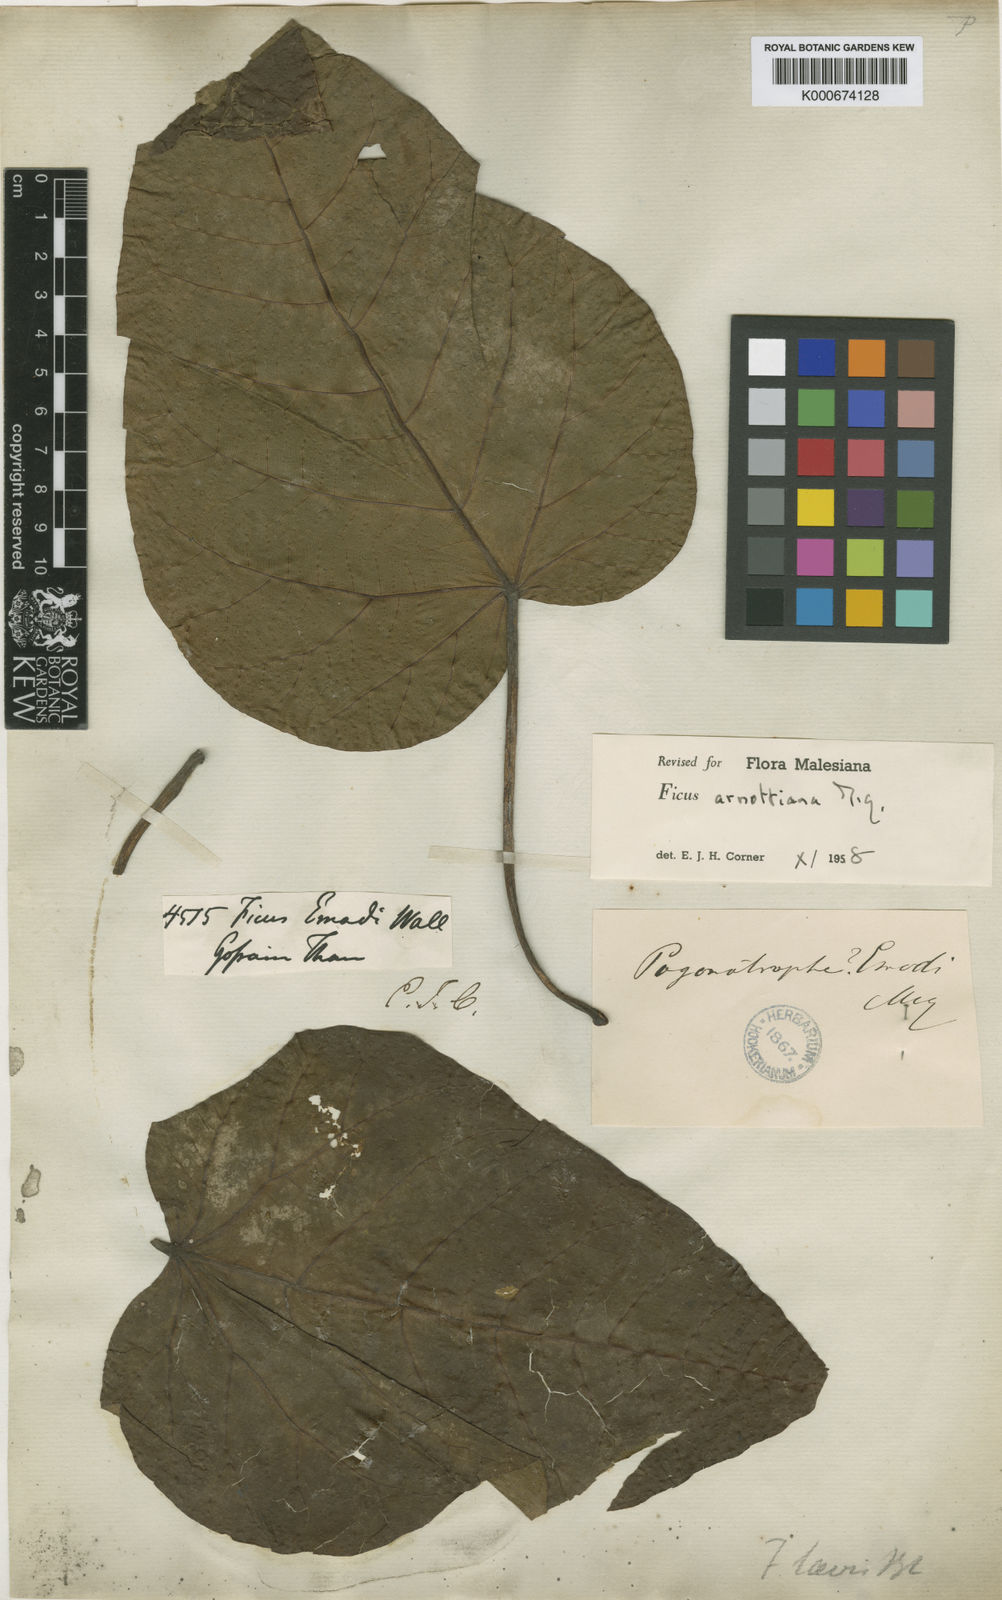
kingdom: Plantae
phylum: Tracheophyta
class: Magnoliopsida
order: Rosales
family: Moraceae
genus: Ficus
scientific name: Ficus arnottiana
